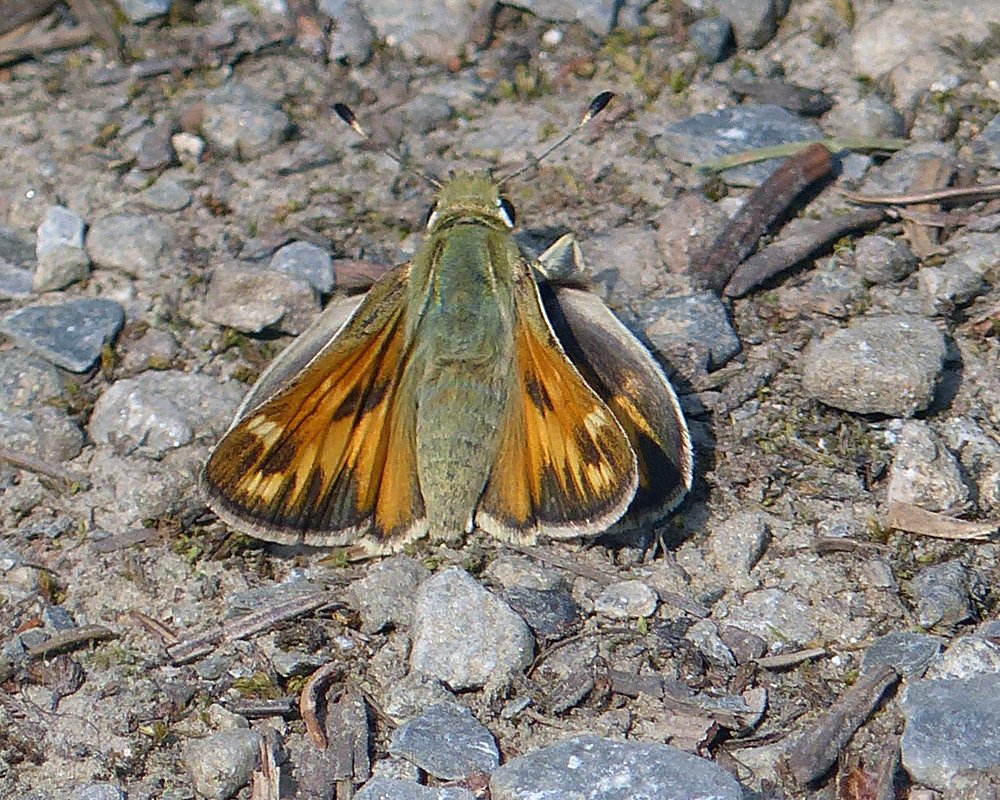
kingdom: Animalia
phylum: Arthropoda
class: Insecta
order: Lepidoptera
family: Hesperiidae
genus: Hesperia
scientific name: Hesperia juba
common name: Juba Skipper
